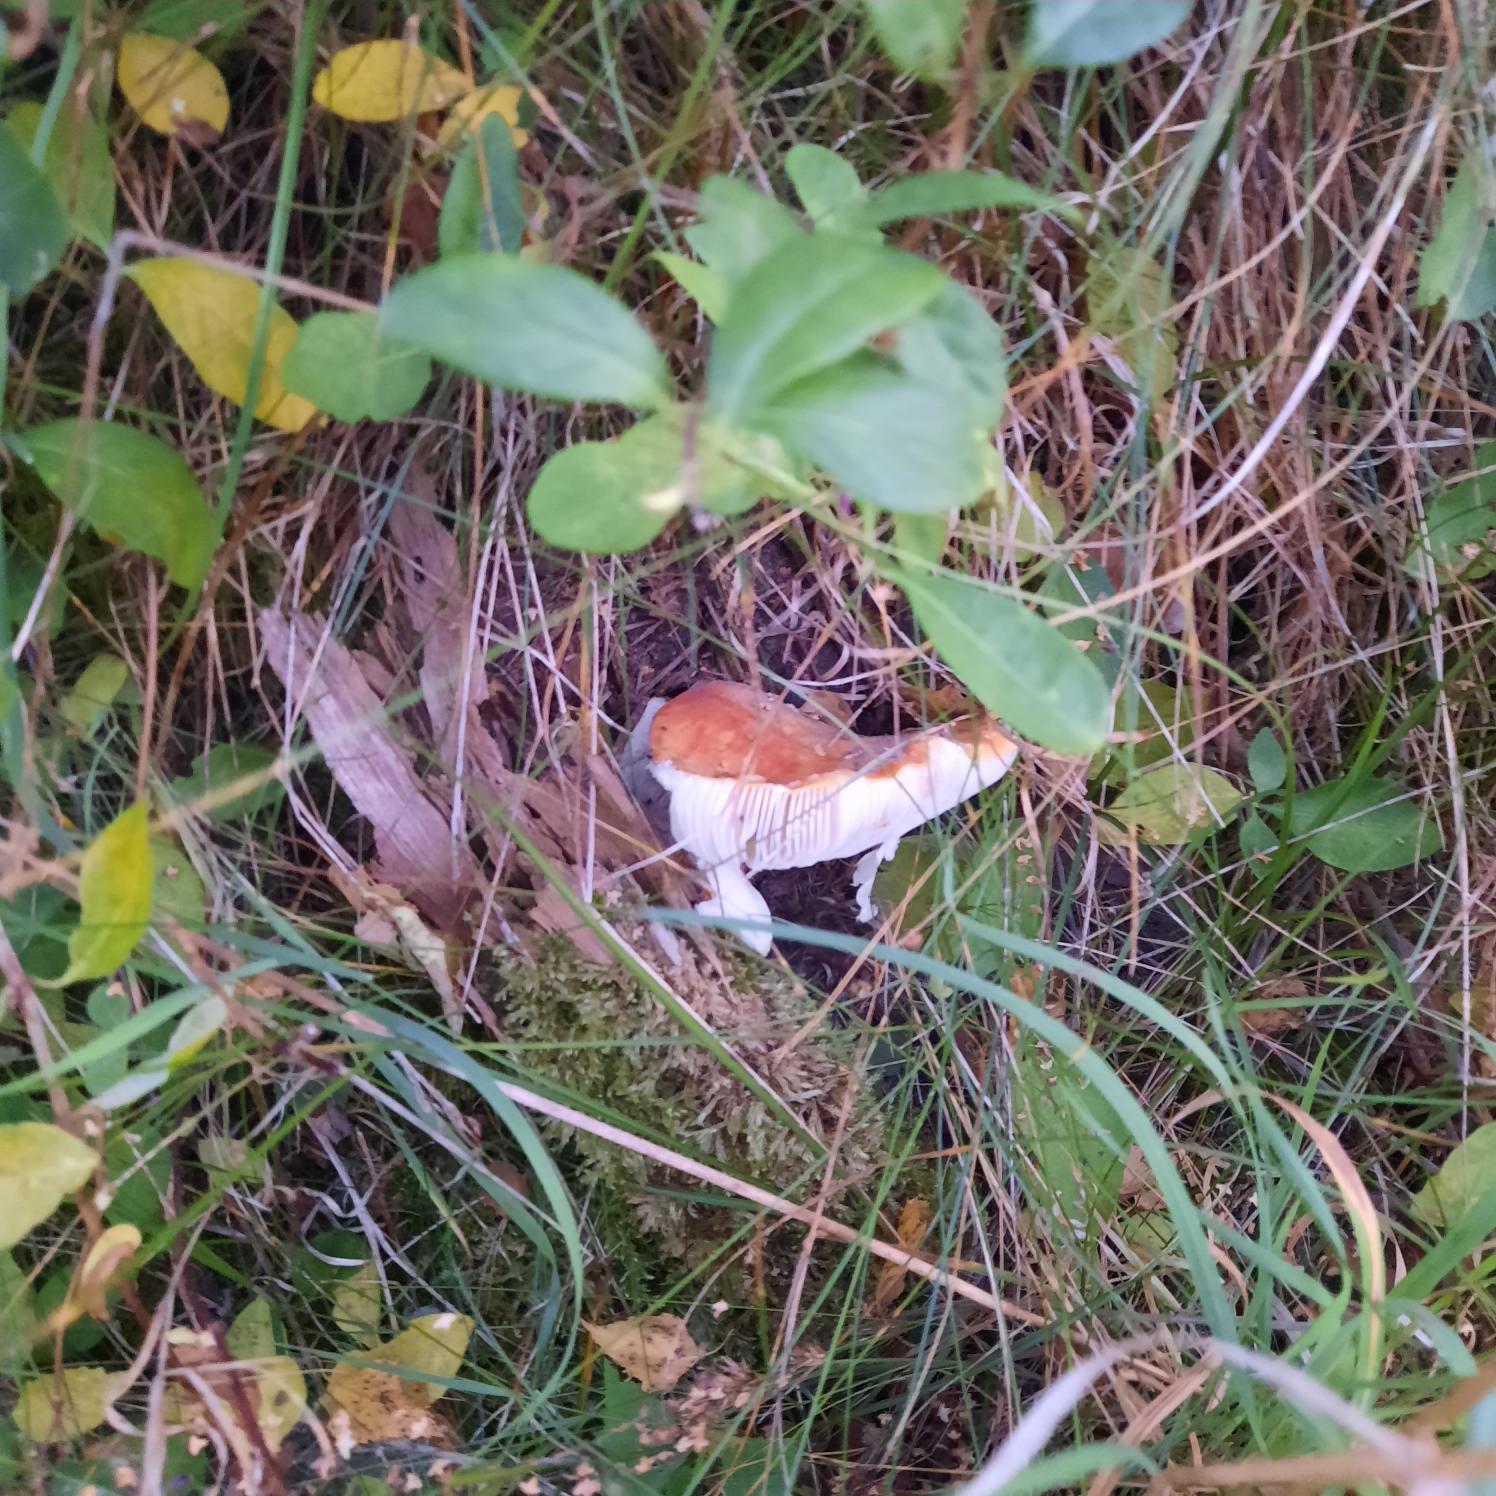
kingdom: Fungi
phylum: Basidiomycota
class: Agaricomycetes
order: Agaricales
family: Amanitaceae
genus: Amanita
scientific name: Amanita muscaria
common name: Rød fluesvamp
